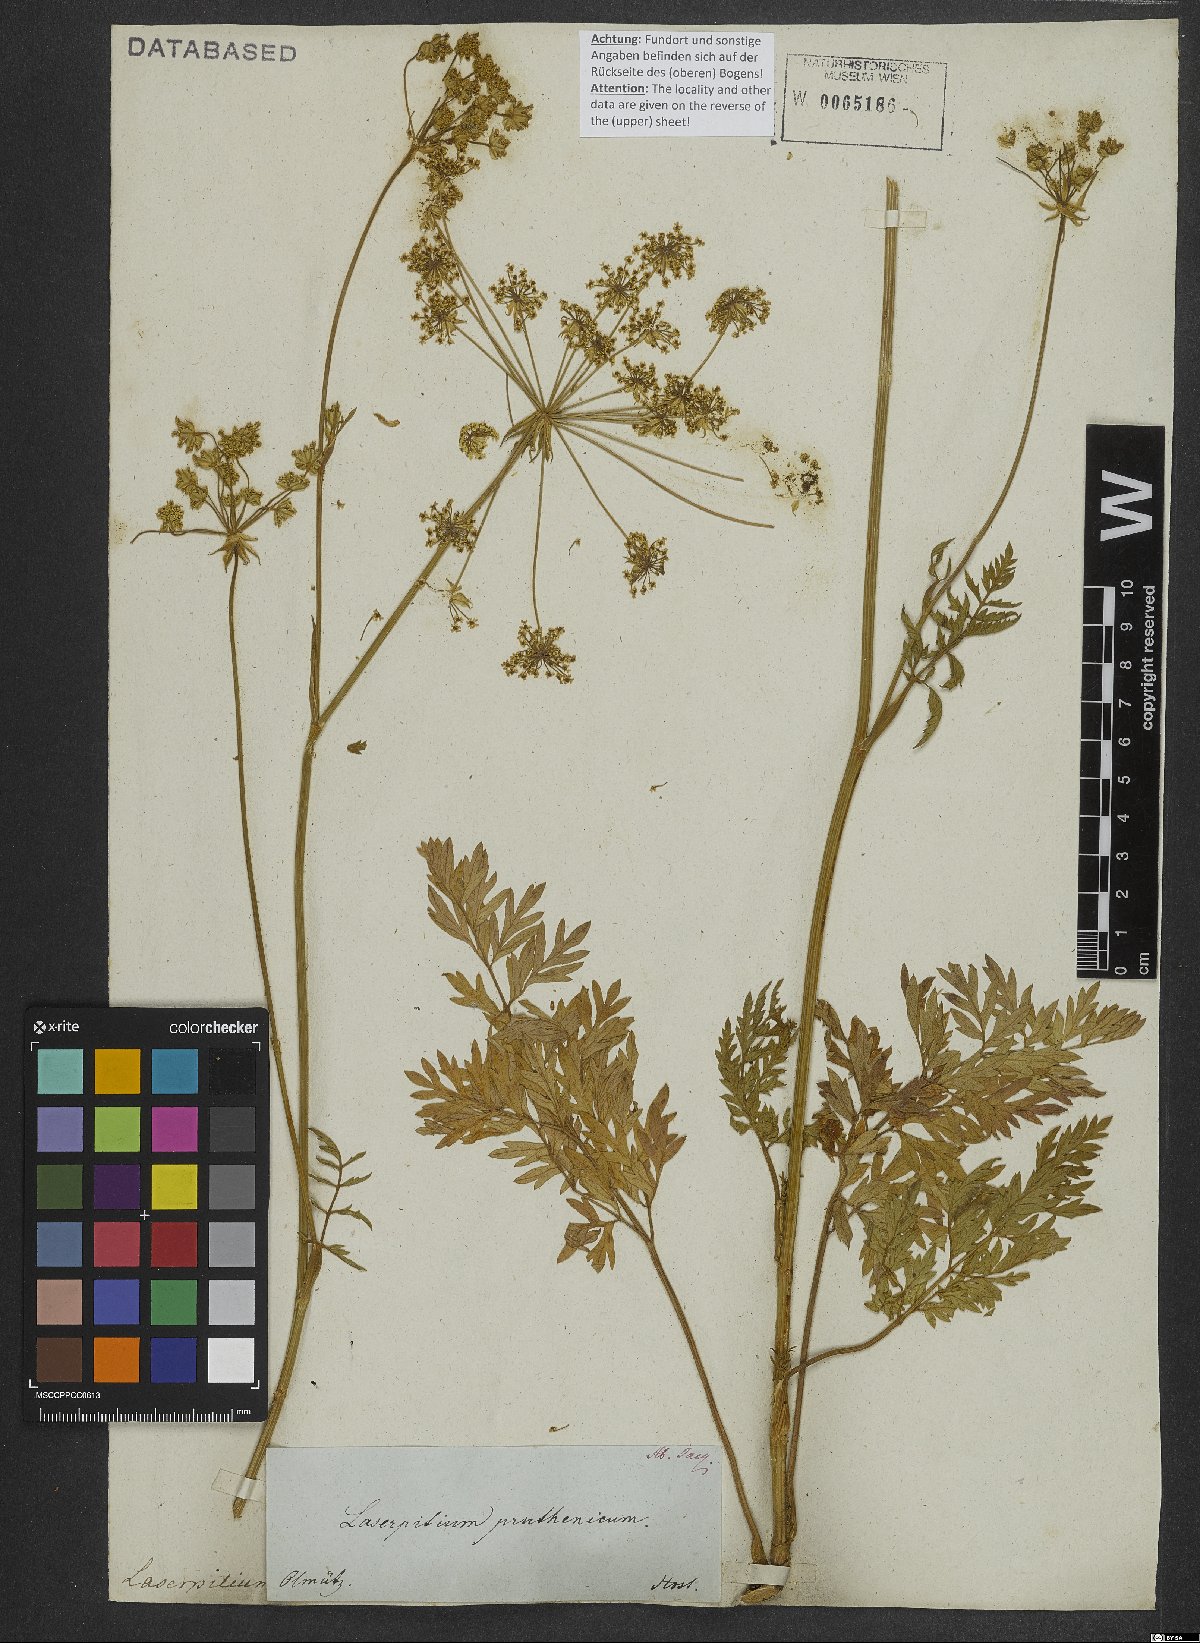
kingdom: Plantae
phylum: Tracheophyta
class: Magnoliopsida
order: Apiales
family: Apiaceae
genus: Silphiodaucus
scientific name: Silphiodaucus prutenicus
